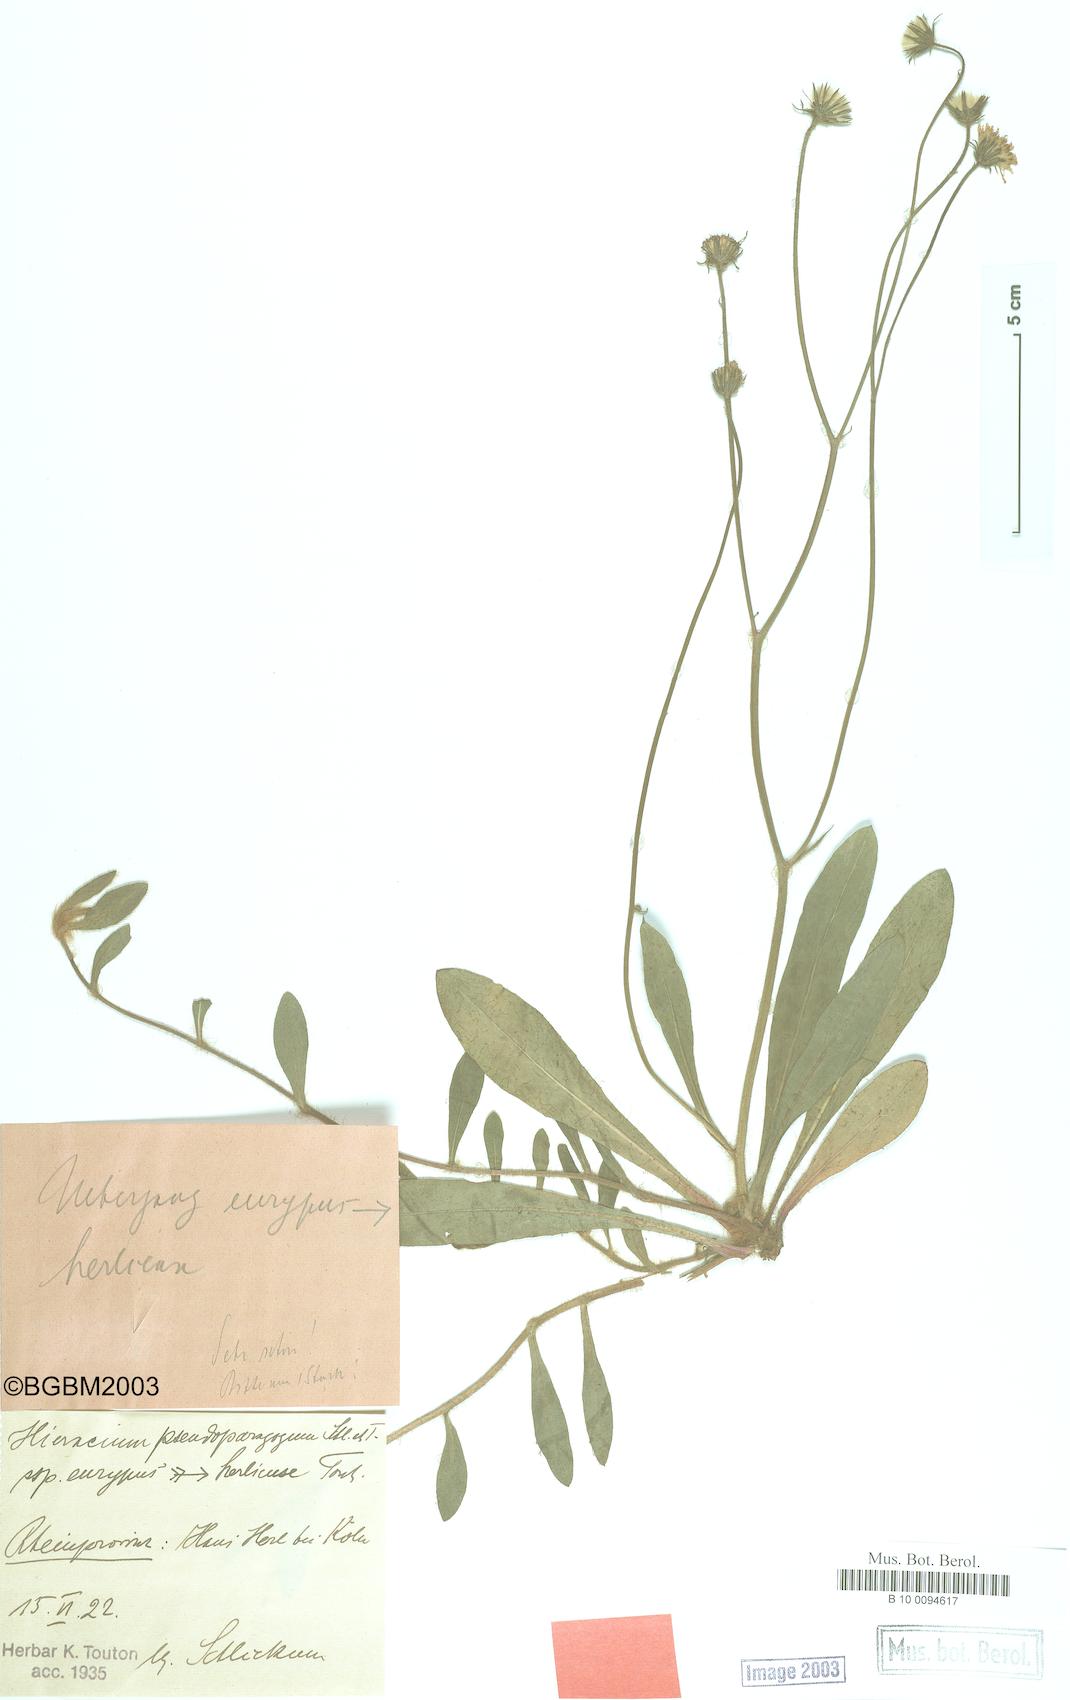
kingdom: Plantae
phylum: Tracheophyta
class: Magnoliopsida
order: Asterales
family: Asteraceae
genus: Pilosella
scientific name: Pilosella pseudoparagoga
